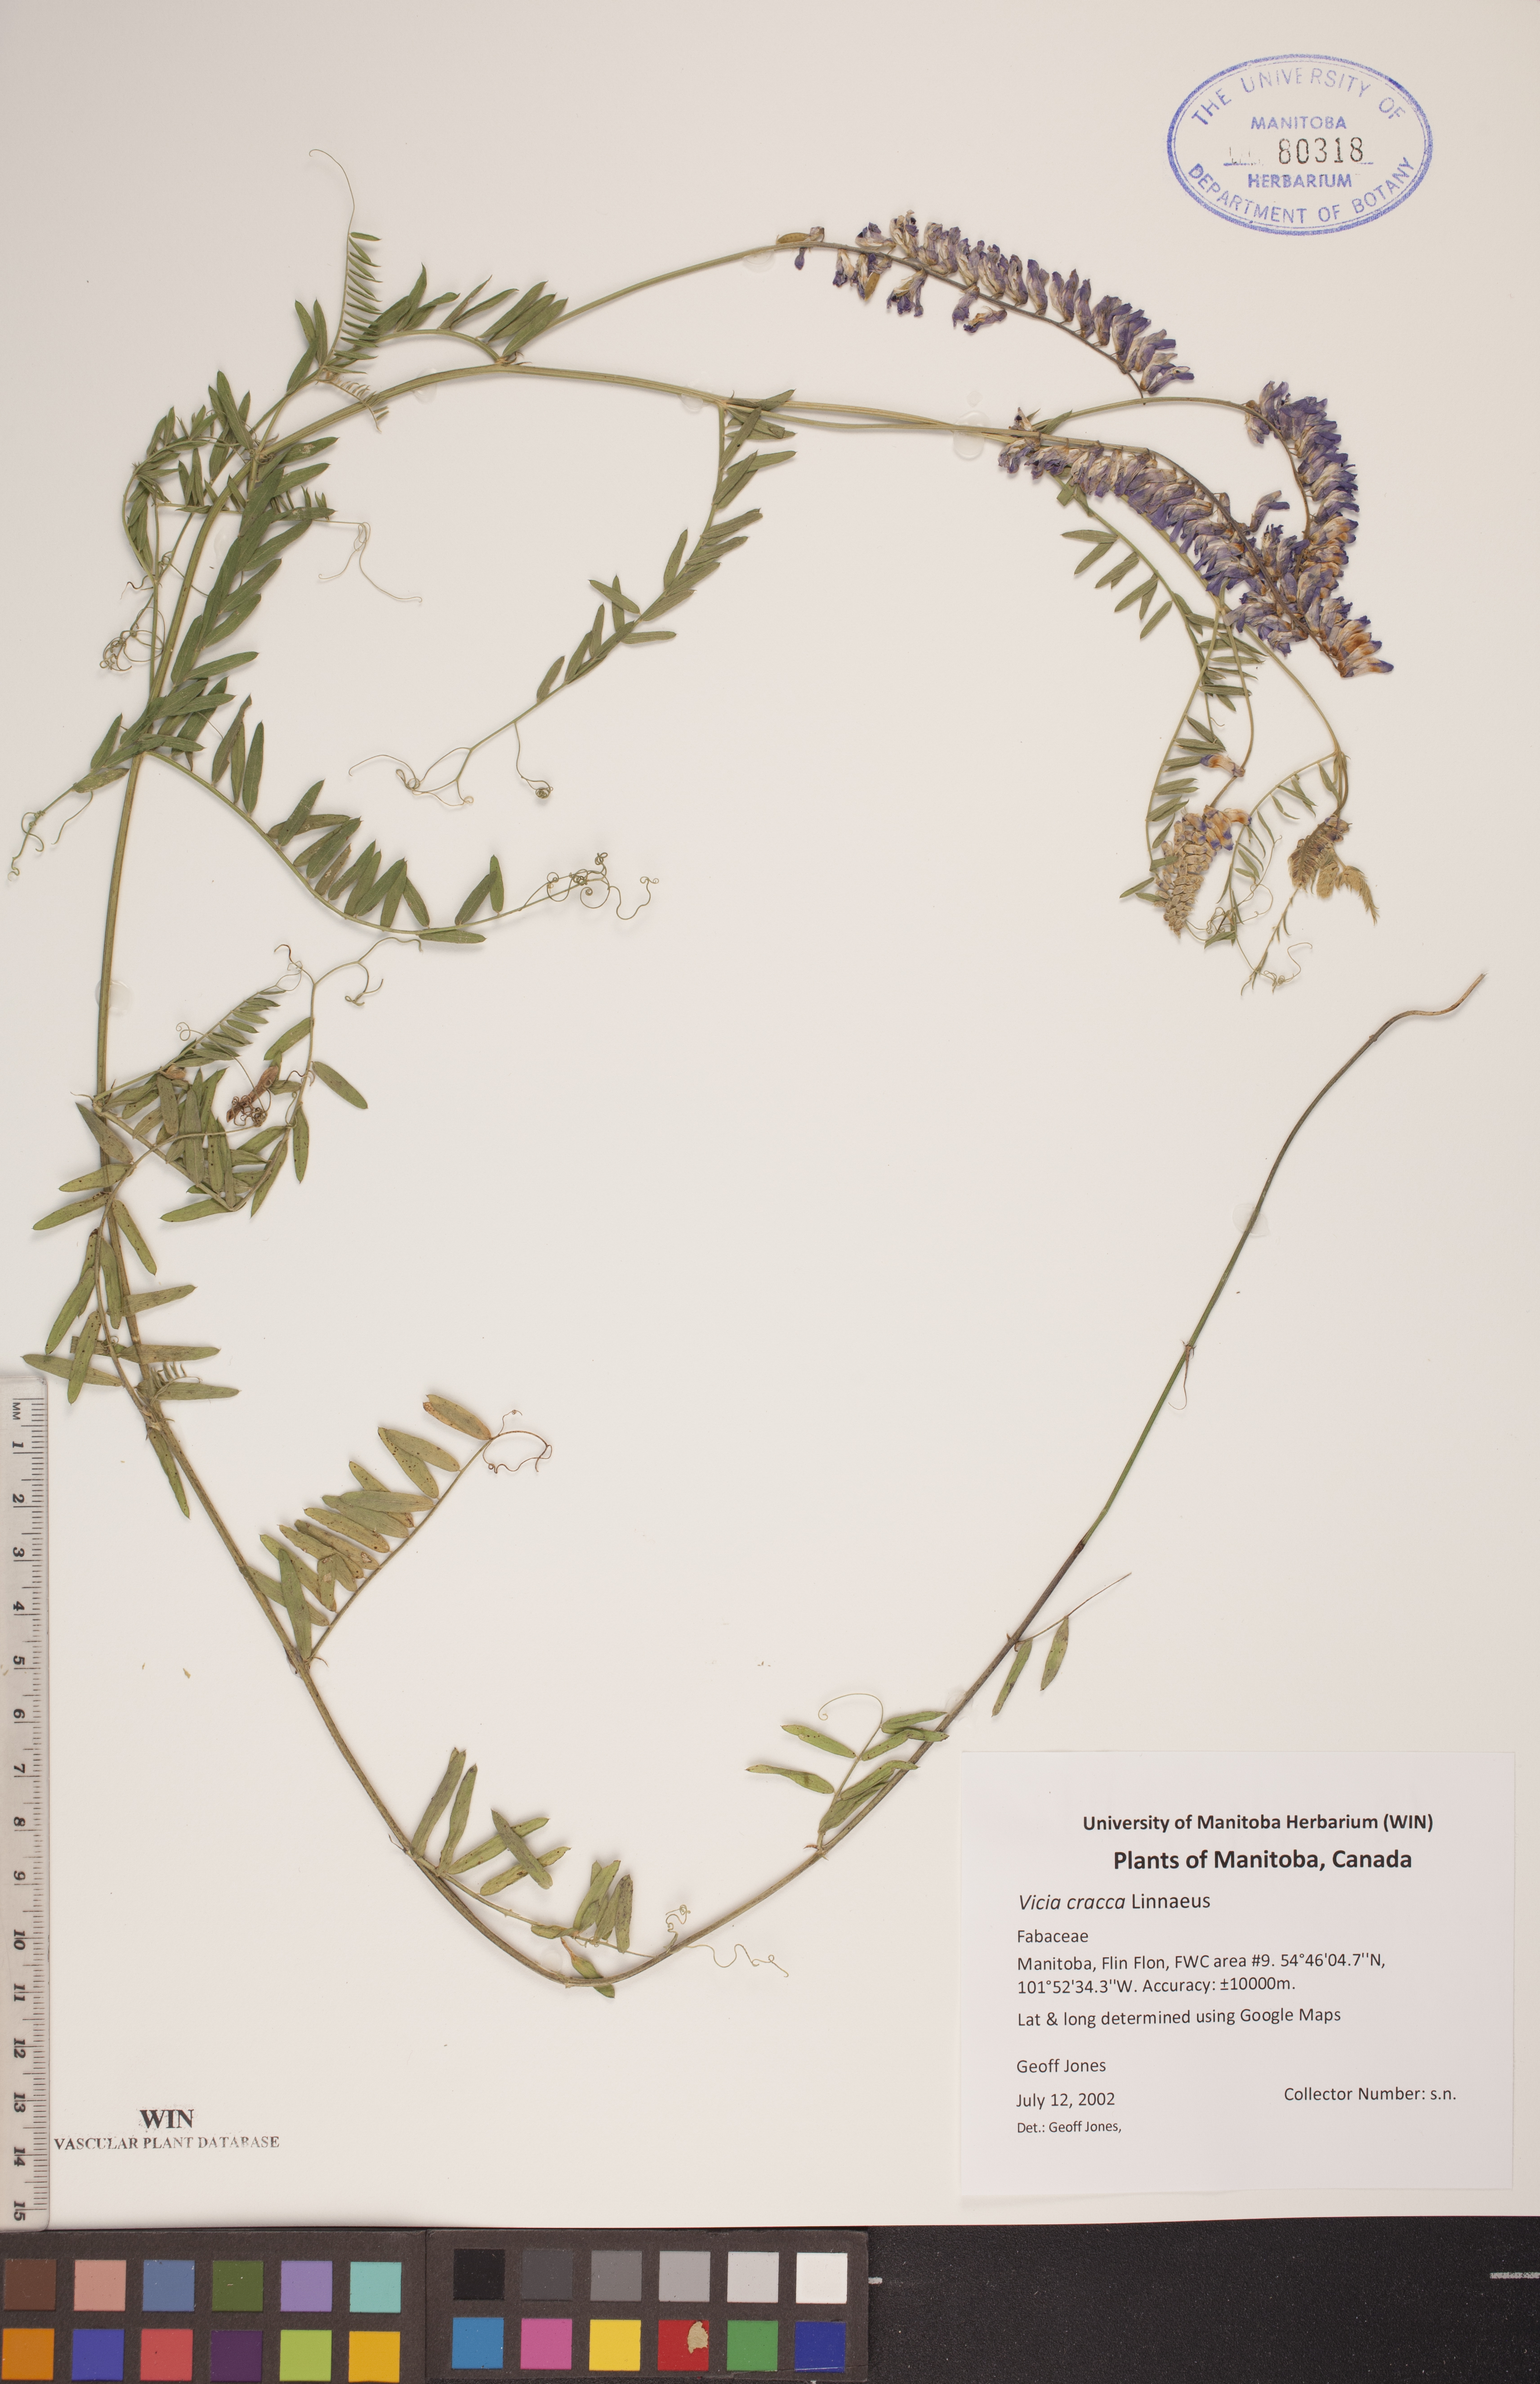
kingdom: Plantae
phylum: Tracheophyta
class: Magnoliopsida
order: Fabales
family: Fabaceae
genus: Vicia
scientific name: Vicia cracca
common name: Bird vetch
